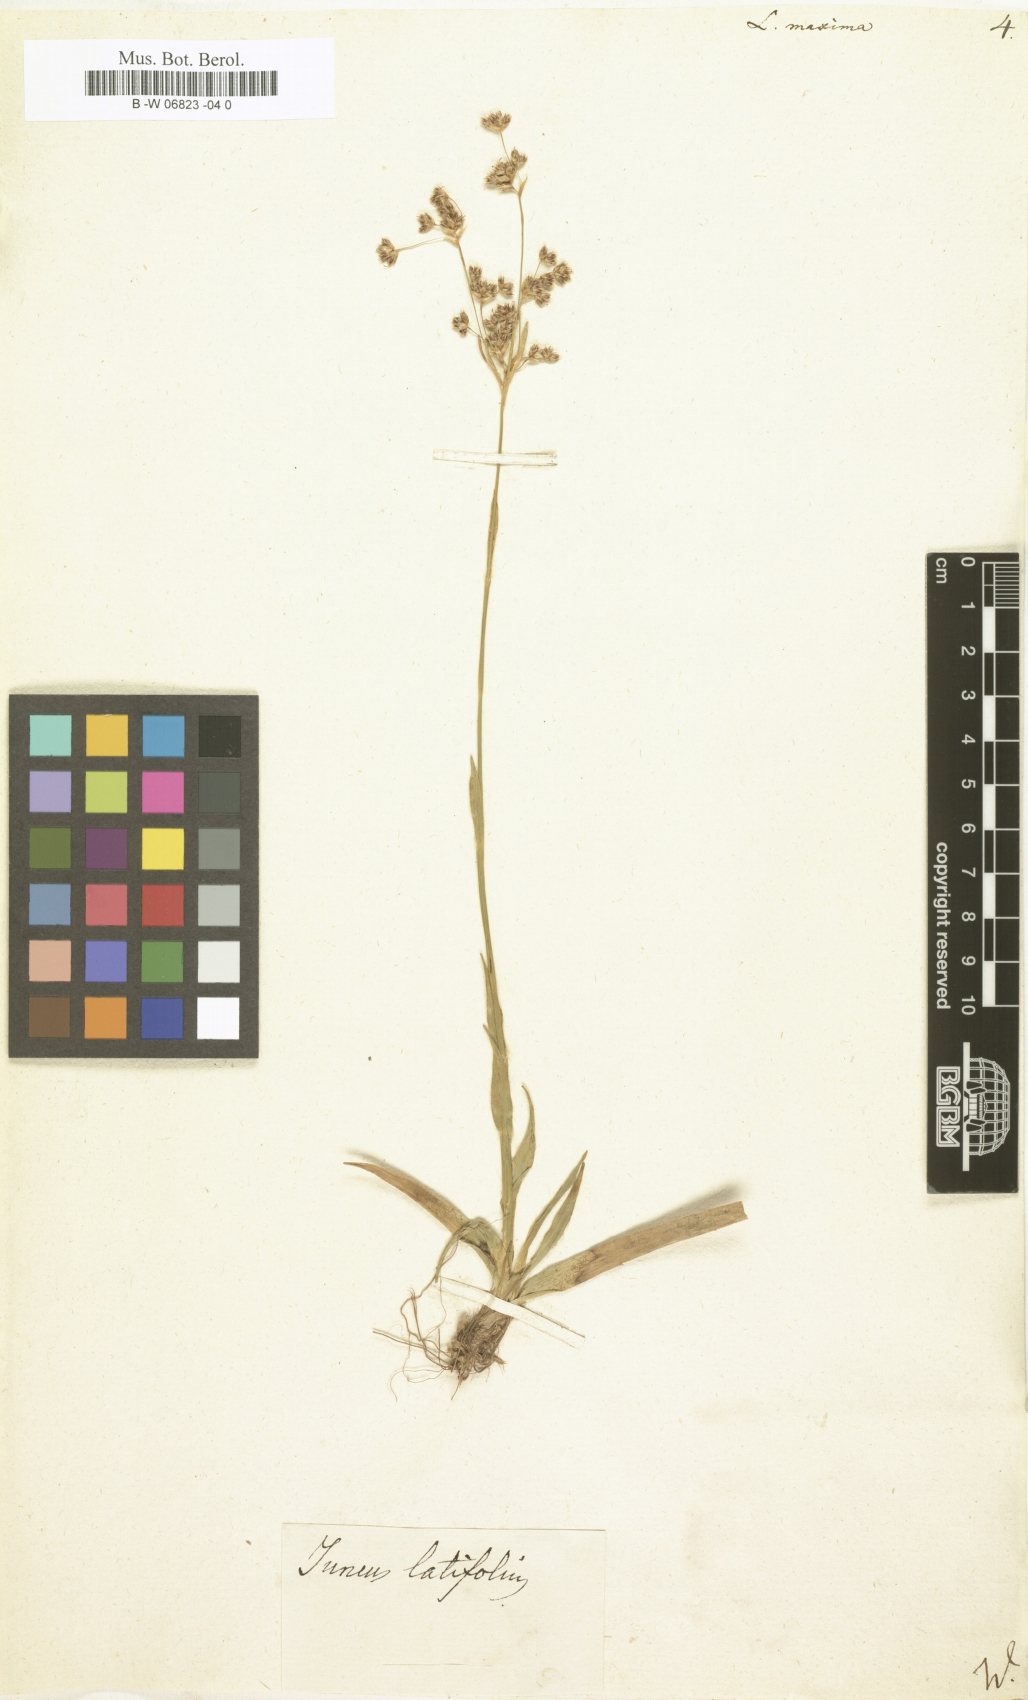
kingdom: Plantae
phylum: Tracheophyta
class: Liliopsida
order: Poales
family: Juncaceae
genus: Luzula
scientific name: Luzula sylvatica
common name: Great wood-rush
